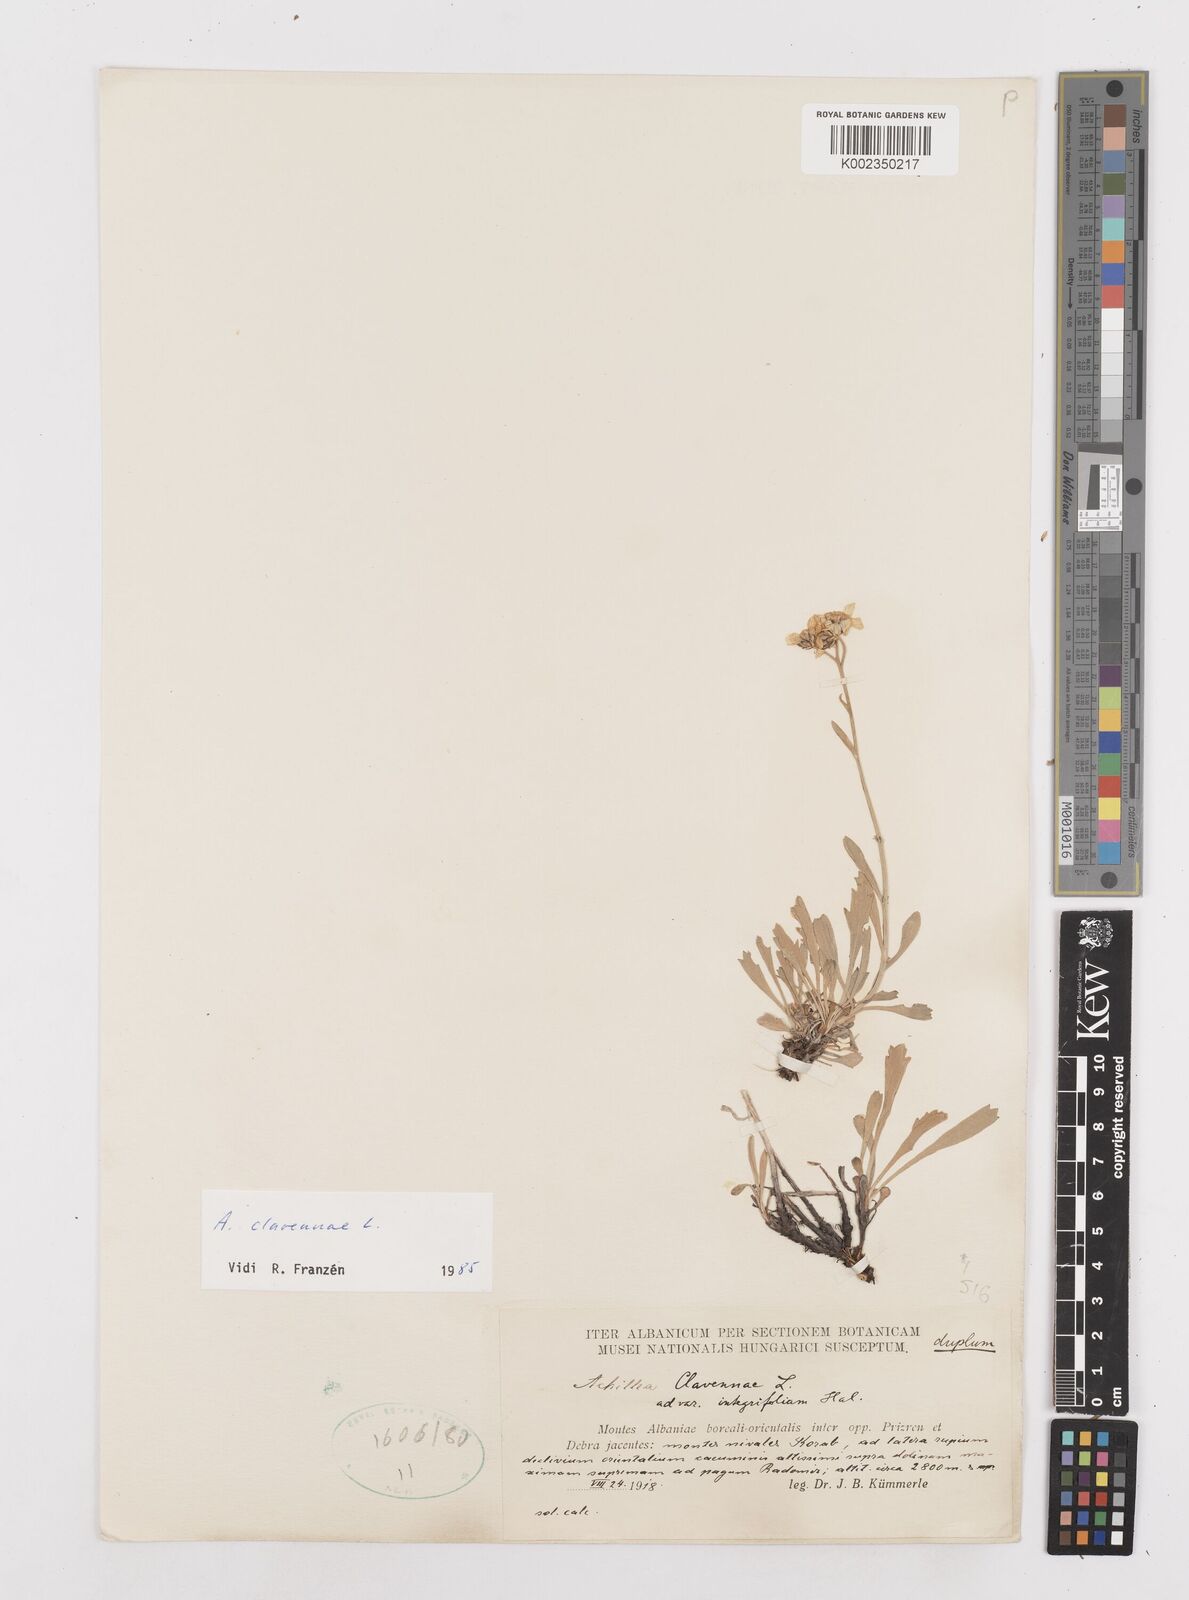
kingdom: Plantae
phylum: Tracheophyta
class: Magnoliopsida
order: Asterales
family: Asteraceae
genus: Achillea
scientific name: Achillea clavennae
